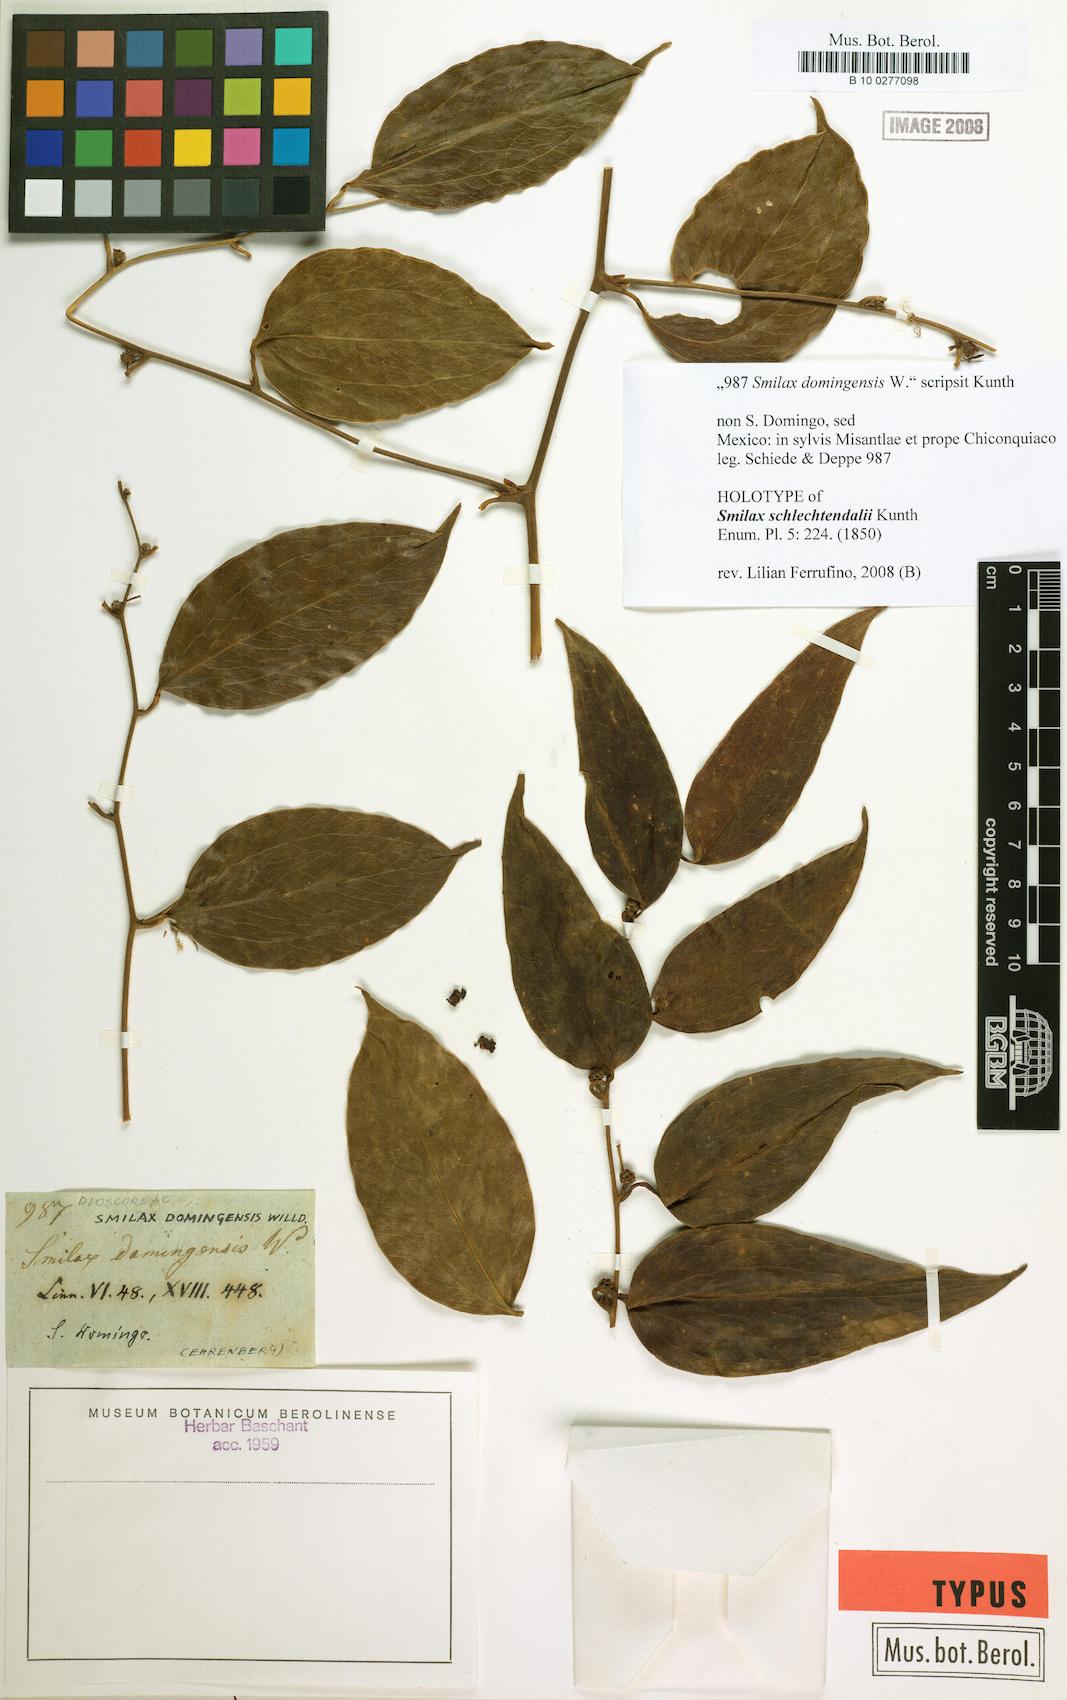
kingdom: Plantae
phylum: Tracheophyta
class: Liliopsida
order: Liliales
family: Smilacaceae
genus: Smilax
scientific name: Smilax domingensis
